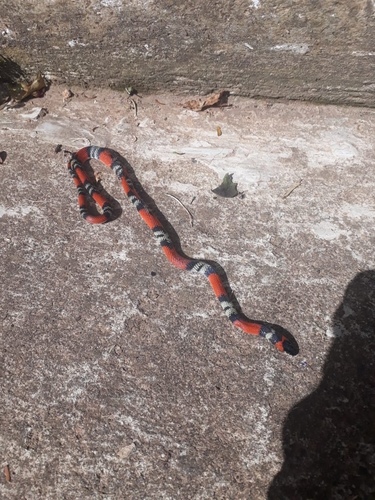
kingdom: Animalia
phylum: Chordata
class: Squamata
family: Colubridae
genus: Oxyrhopus
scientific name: Oxyrhopus guibei
